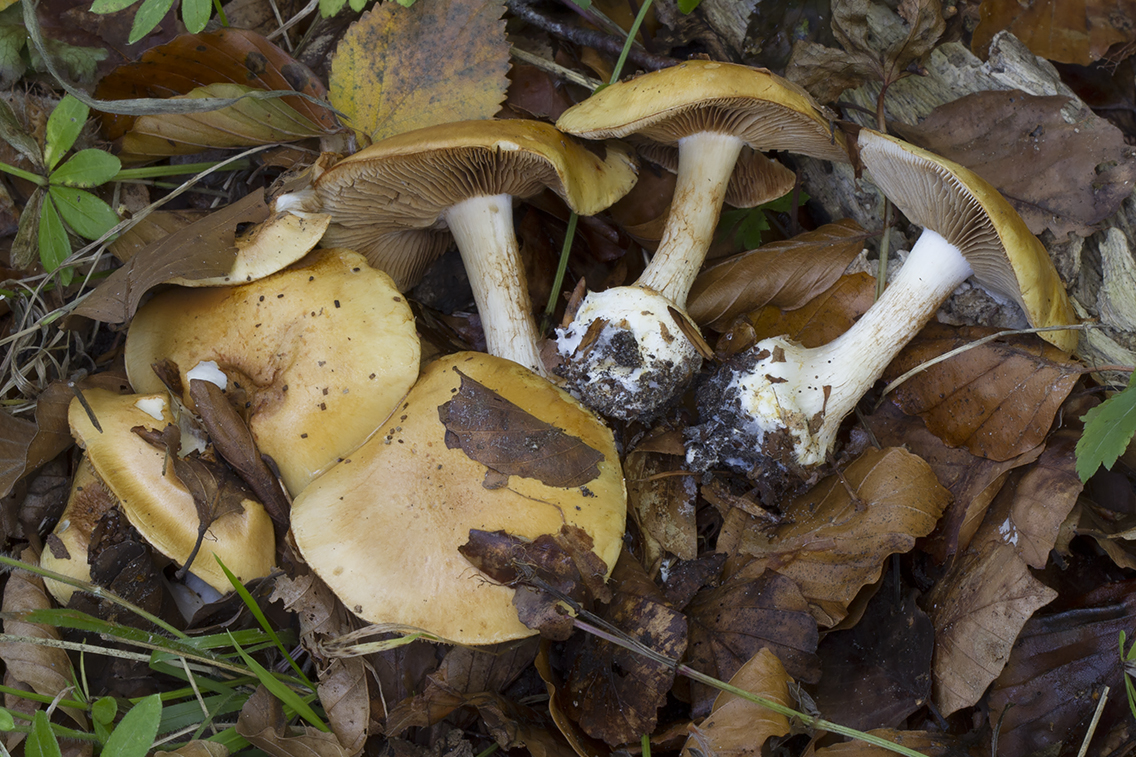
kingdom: Fungi
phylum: Basidiomycota
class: Agaricomycetes
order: Agaricales
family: Cortinariaceae
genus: Phlegmacium
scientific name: Phlegmacium rhizophorum
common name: finkornet slørhat
